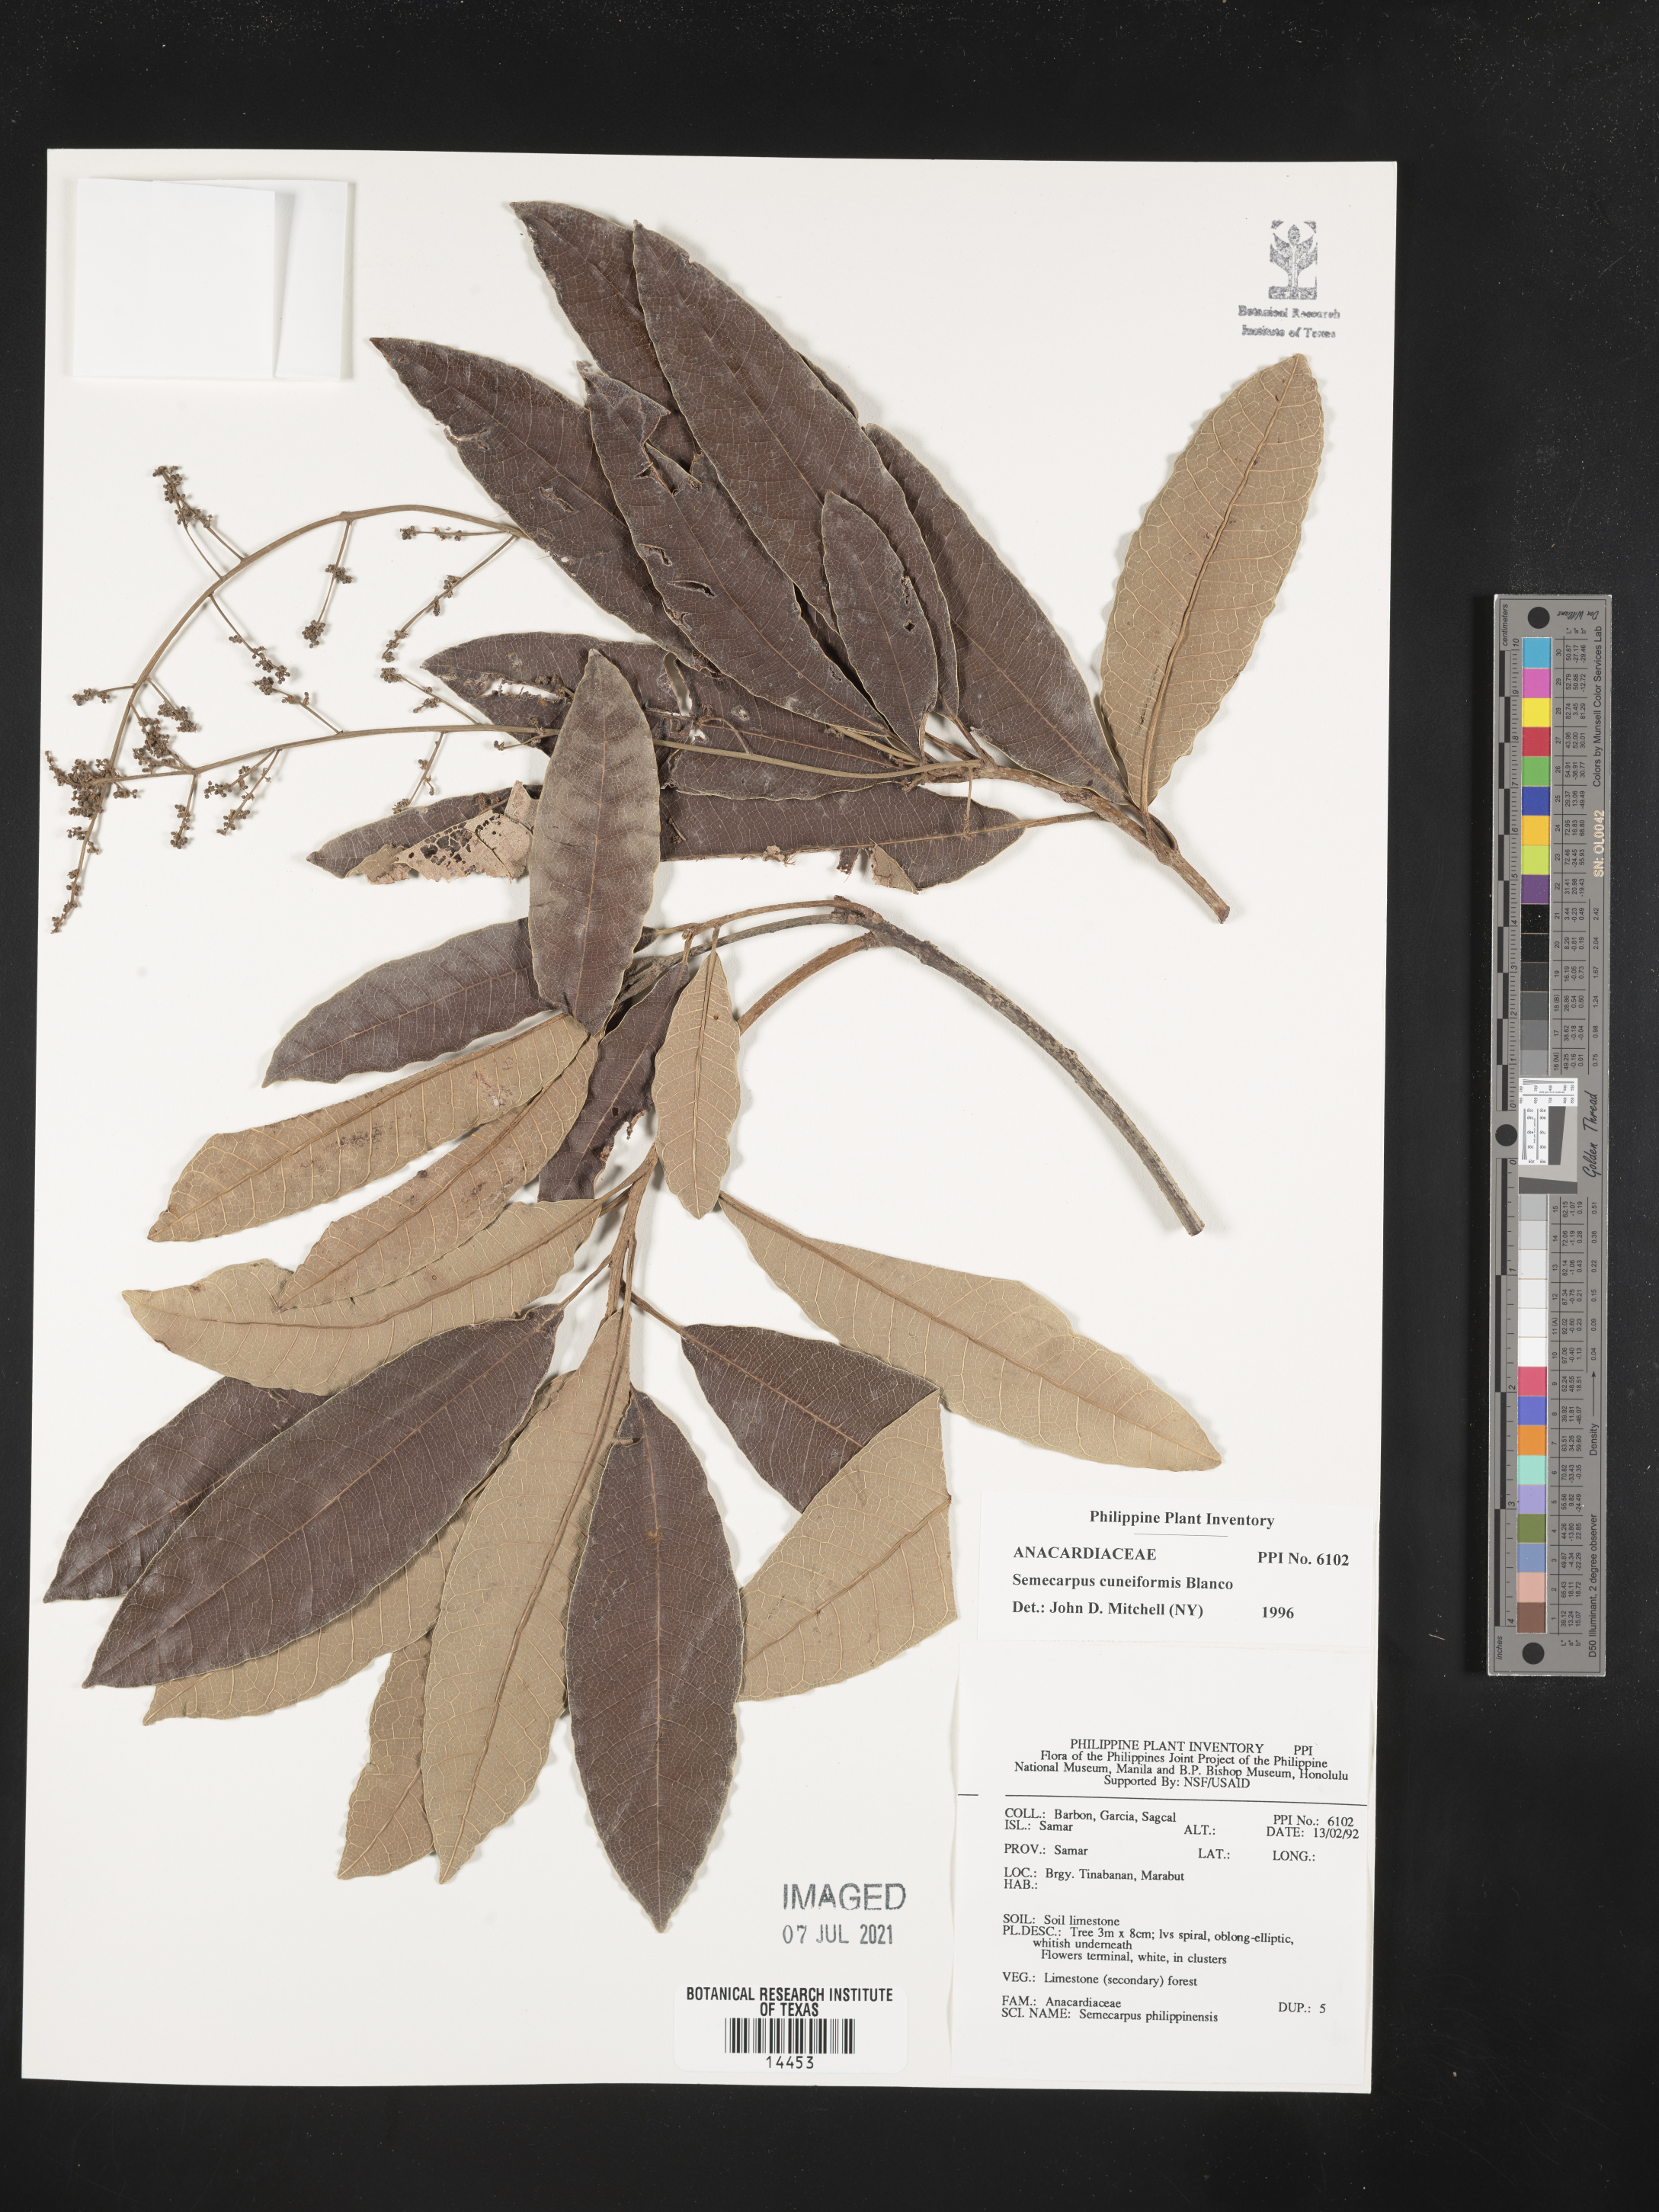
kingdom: Plantae
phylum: Tracheophyta
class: Magnoliopsida
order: Sapindales
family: Anacardiaceae
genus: Semecarpus
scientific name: Semecarpus cuneiformis
